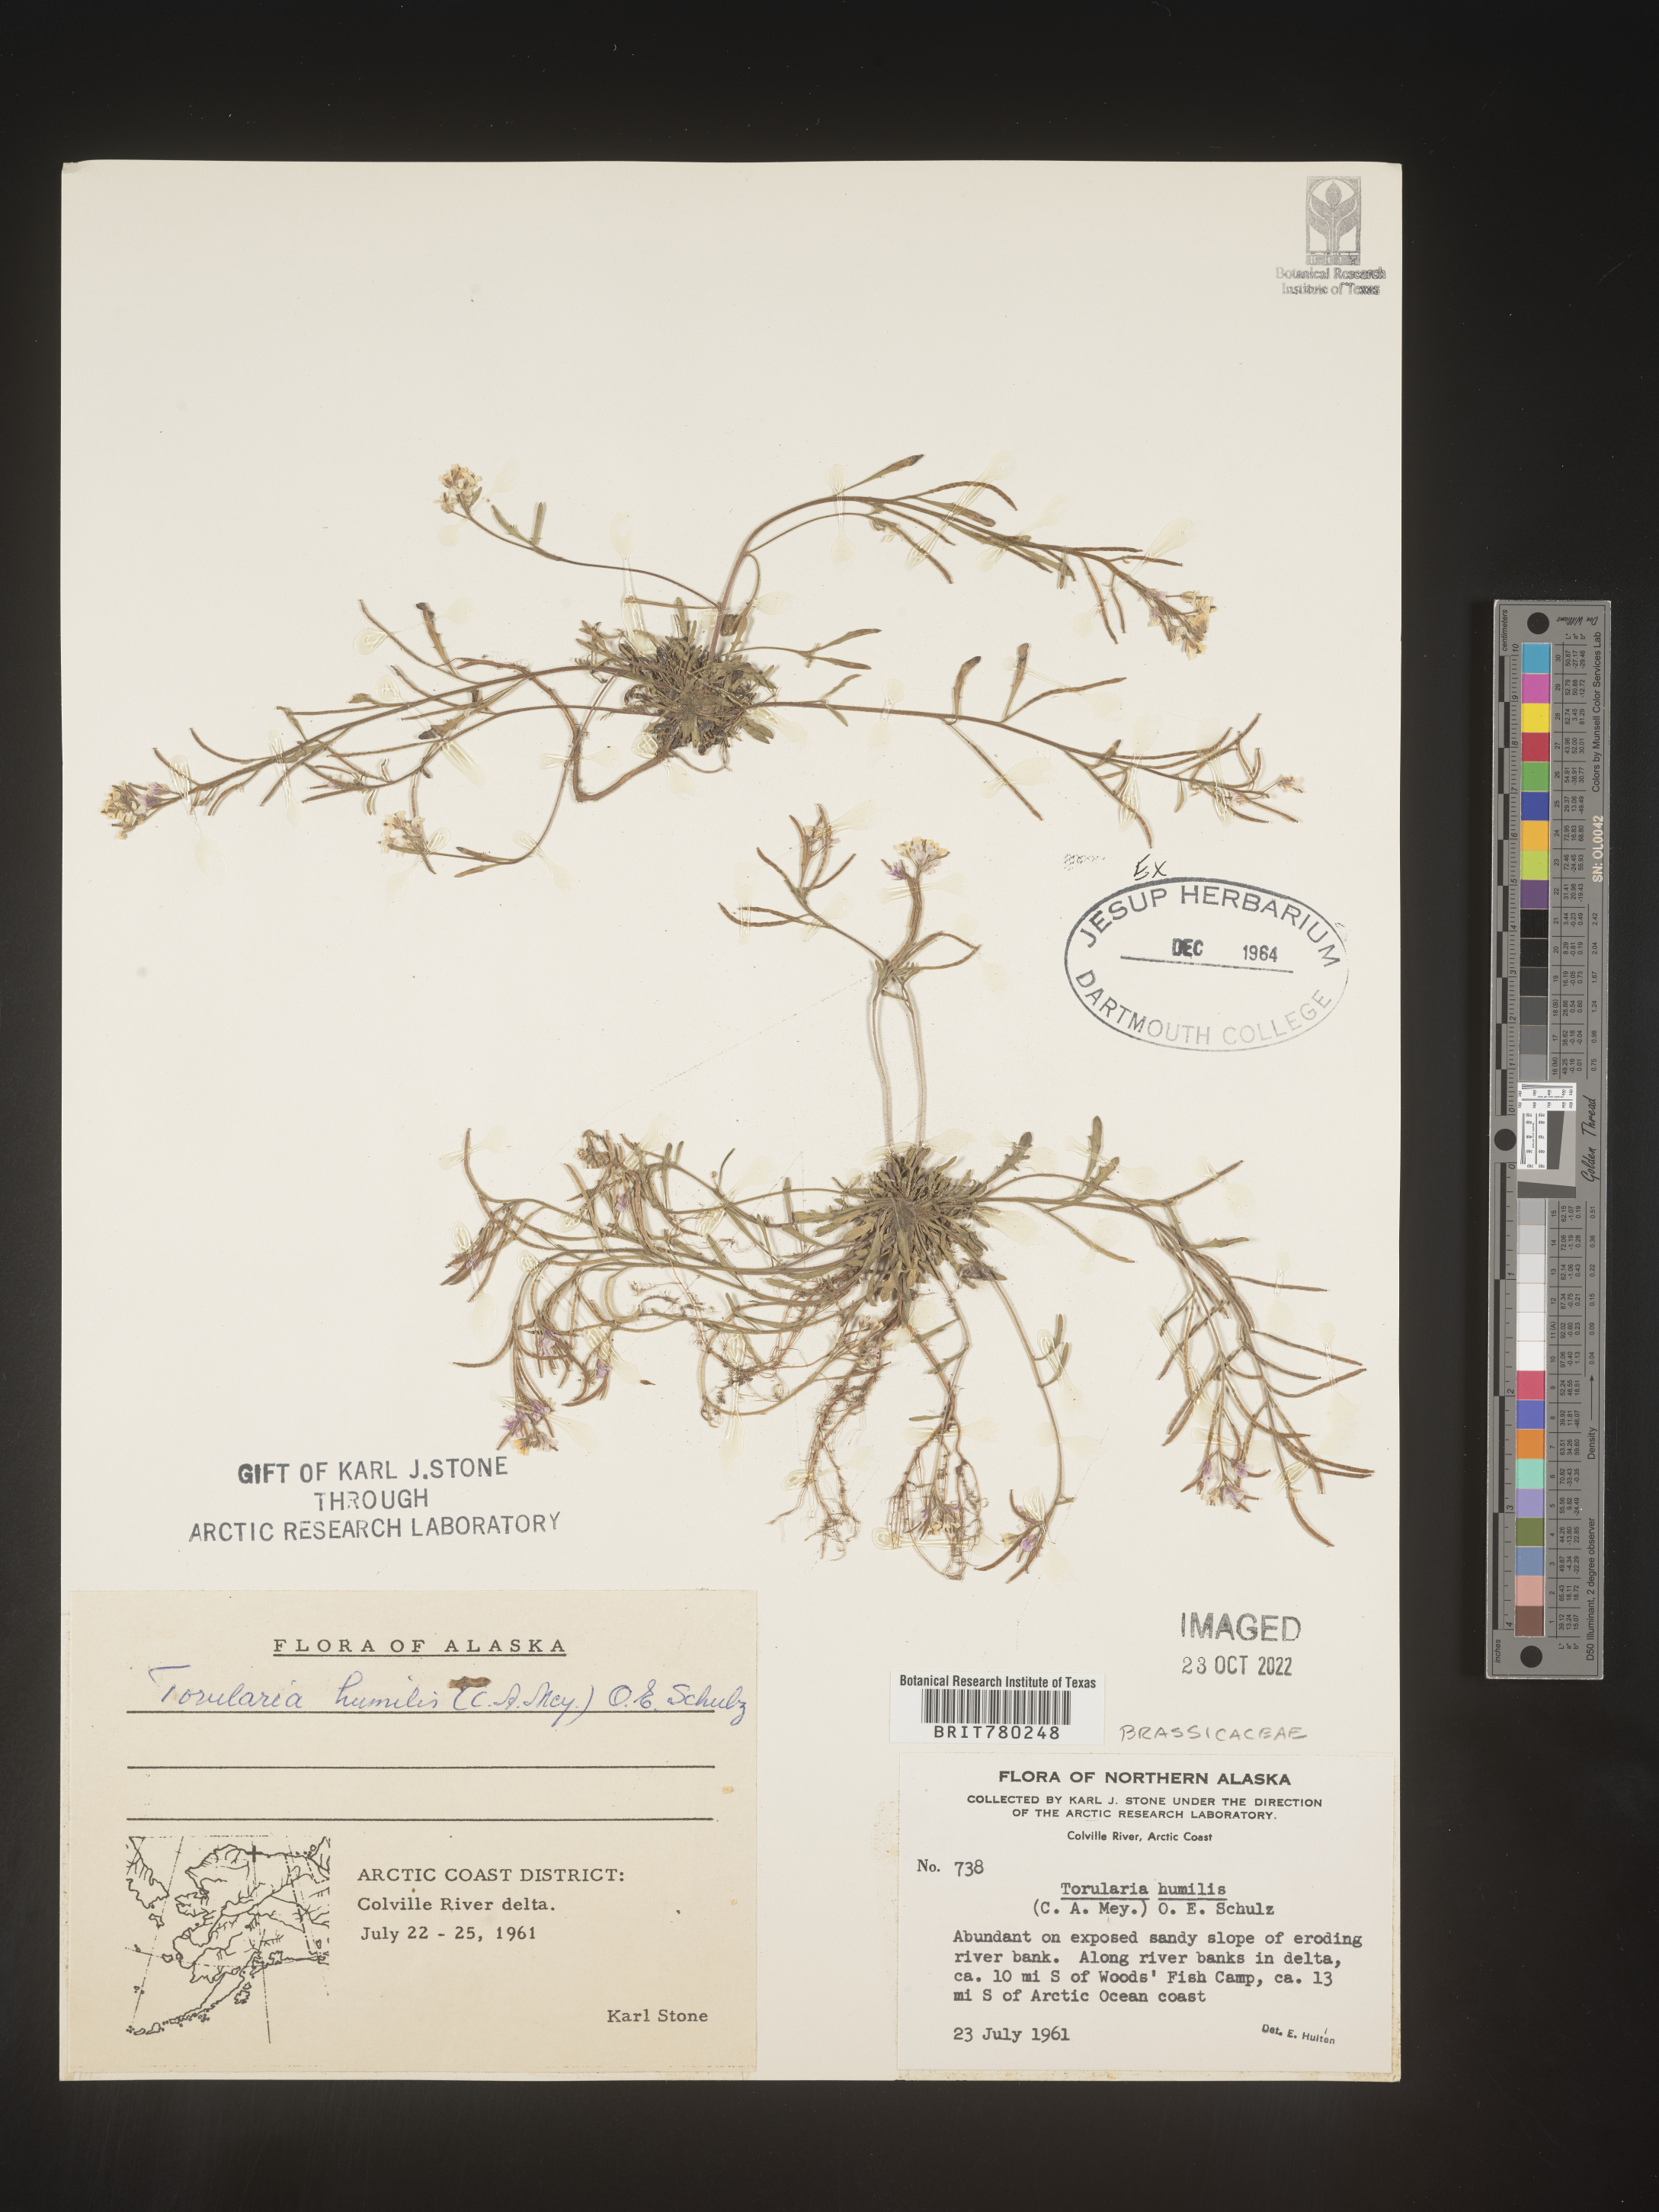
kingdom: Plantae
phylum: Tracheophyta
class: Magnoliopsida
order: Brassicales
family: Brassicaceae
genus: Neotorularia
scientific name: Neotorularia
